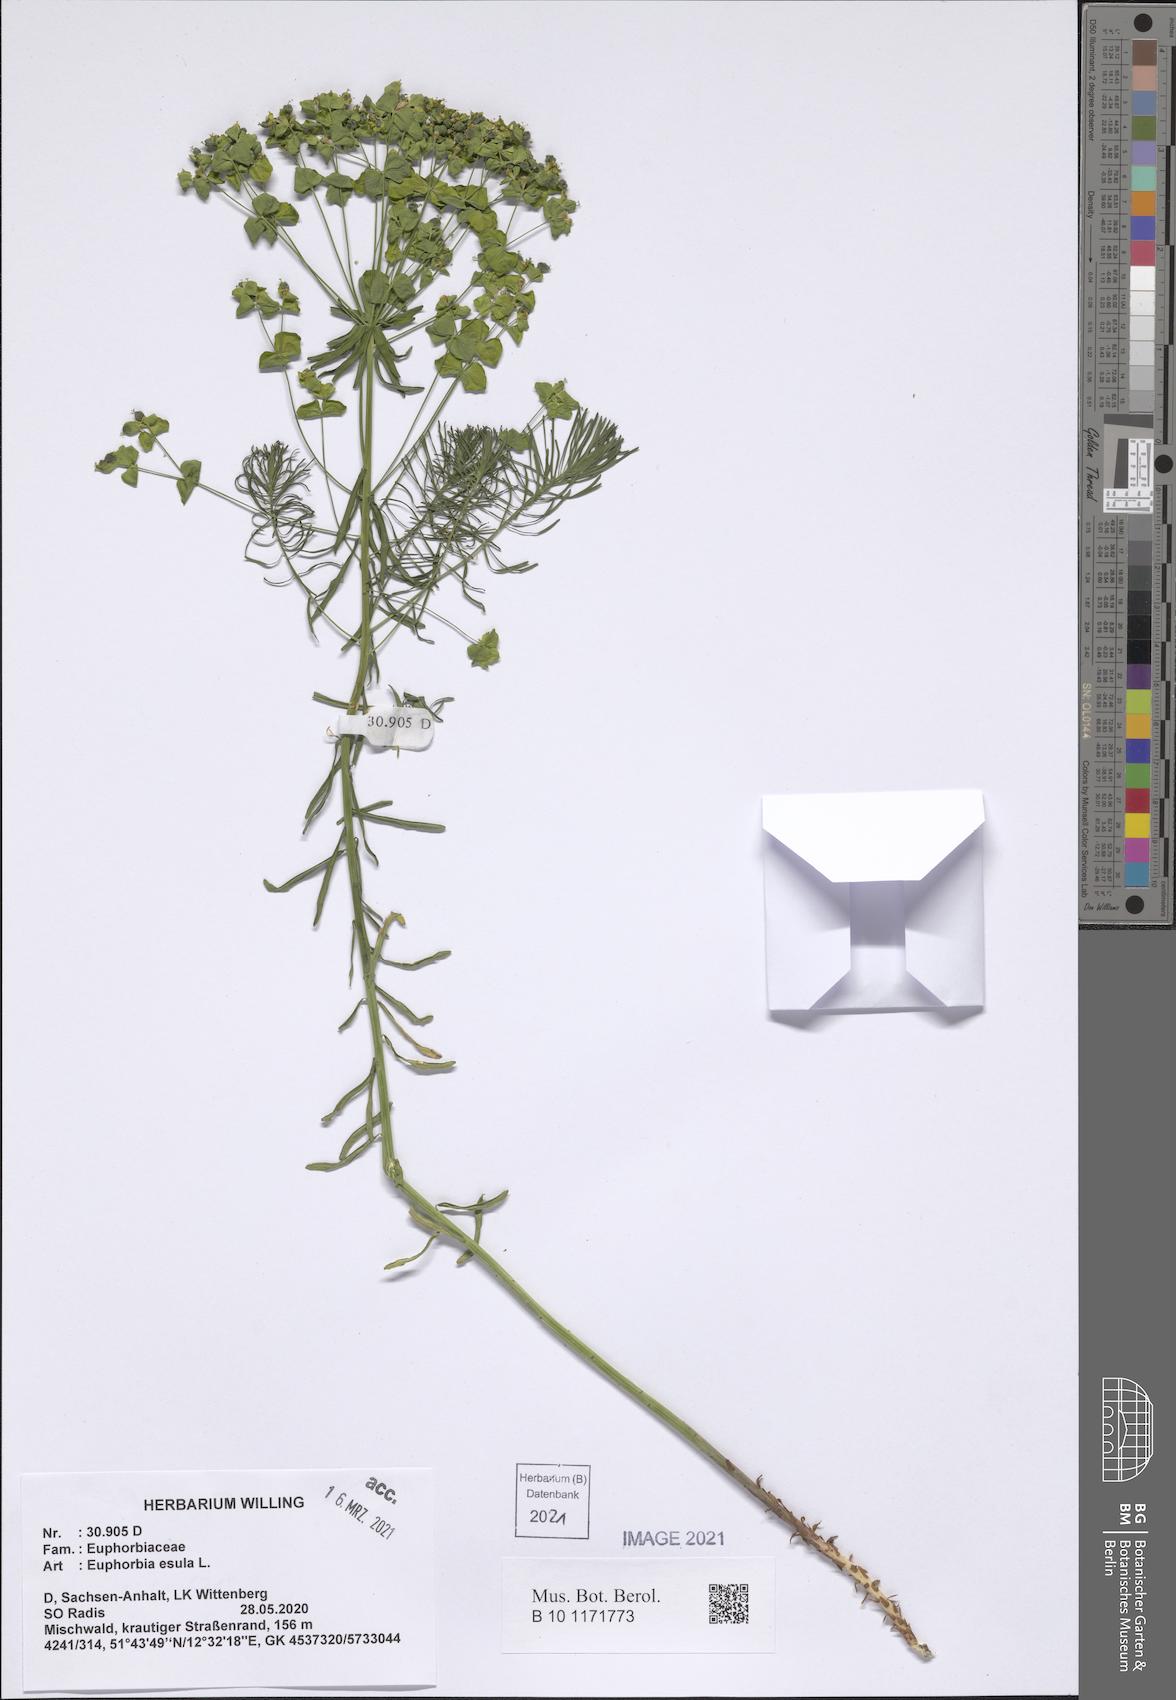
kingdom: Plantae
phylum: Tracheophyta
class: Magnoliopsida
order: Malpighiales
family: Euphorbiaceae
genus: Euphorbia
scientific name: Euphorbia esula
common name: Leafy spurge
